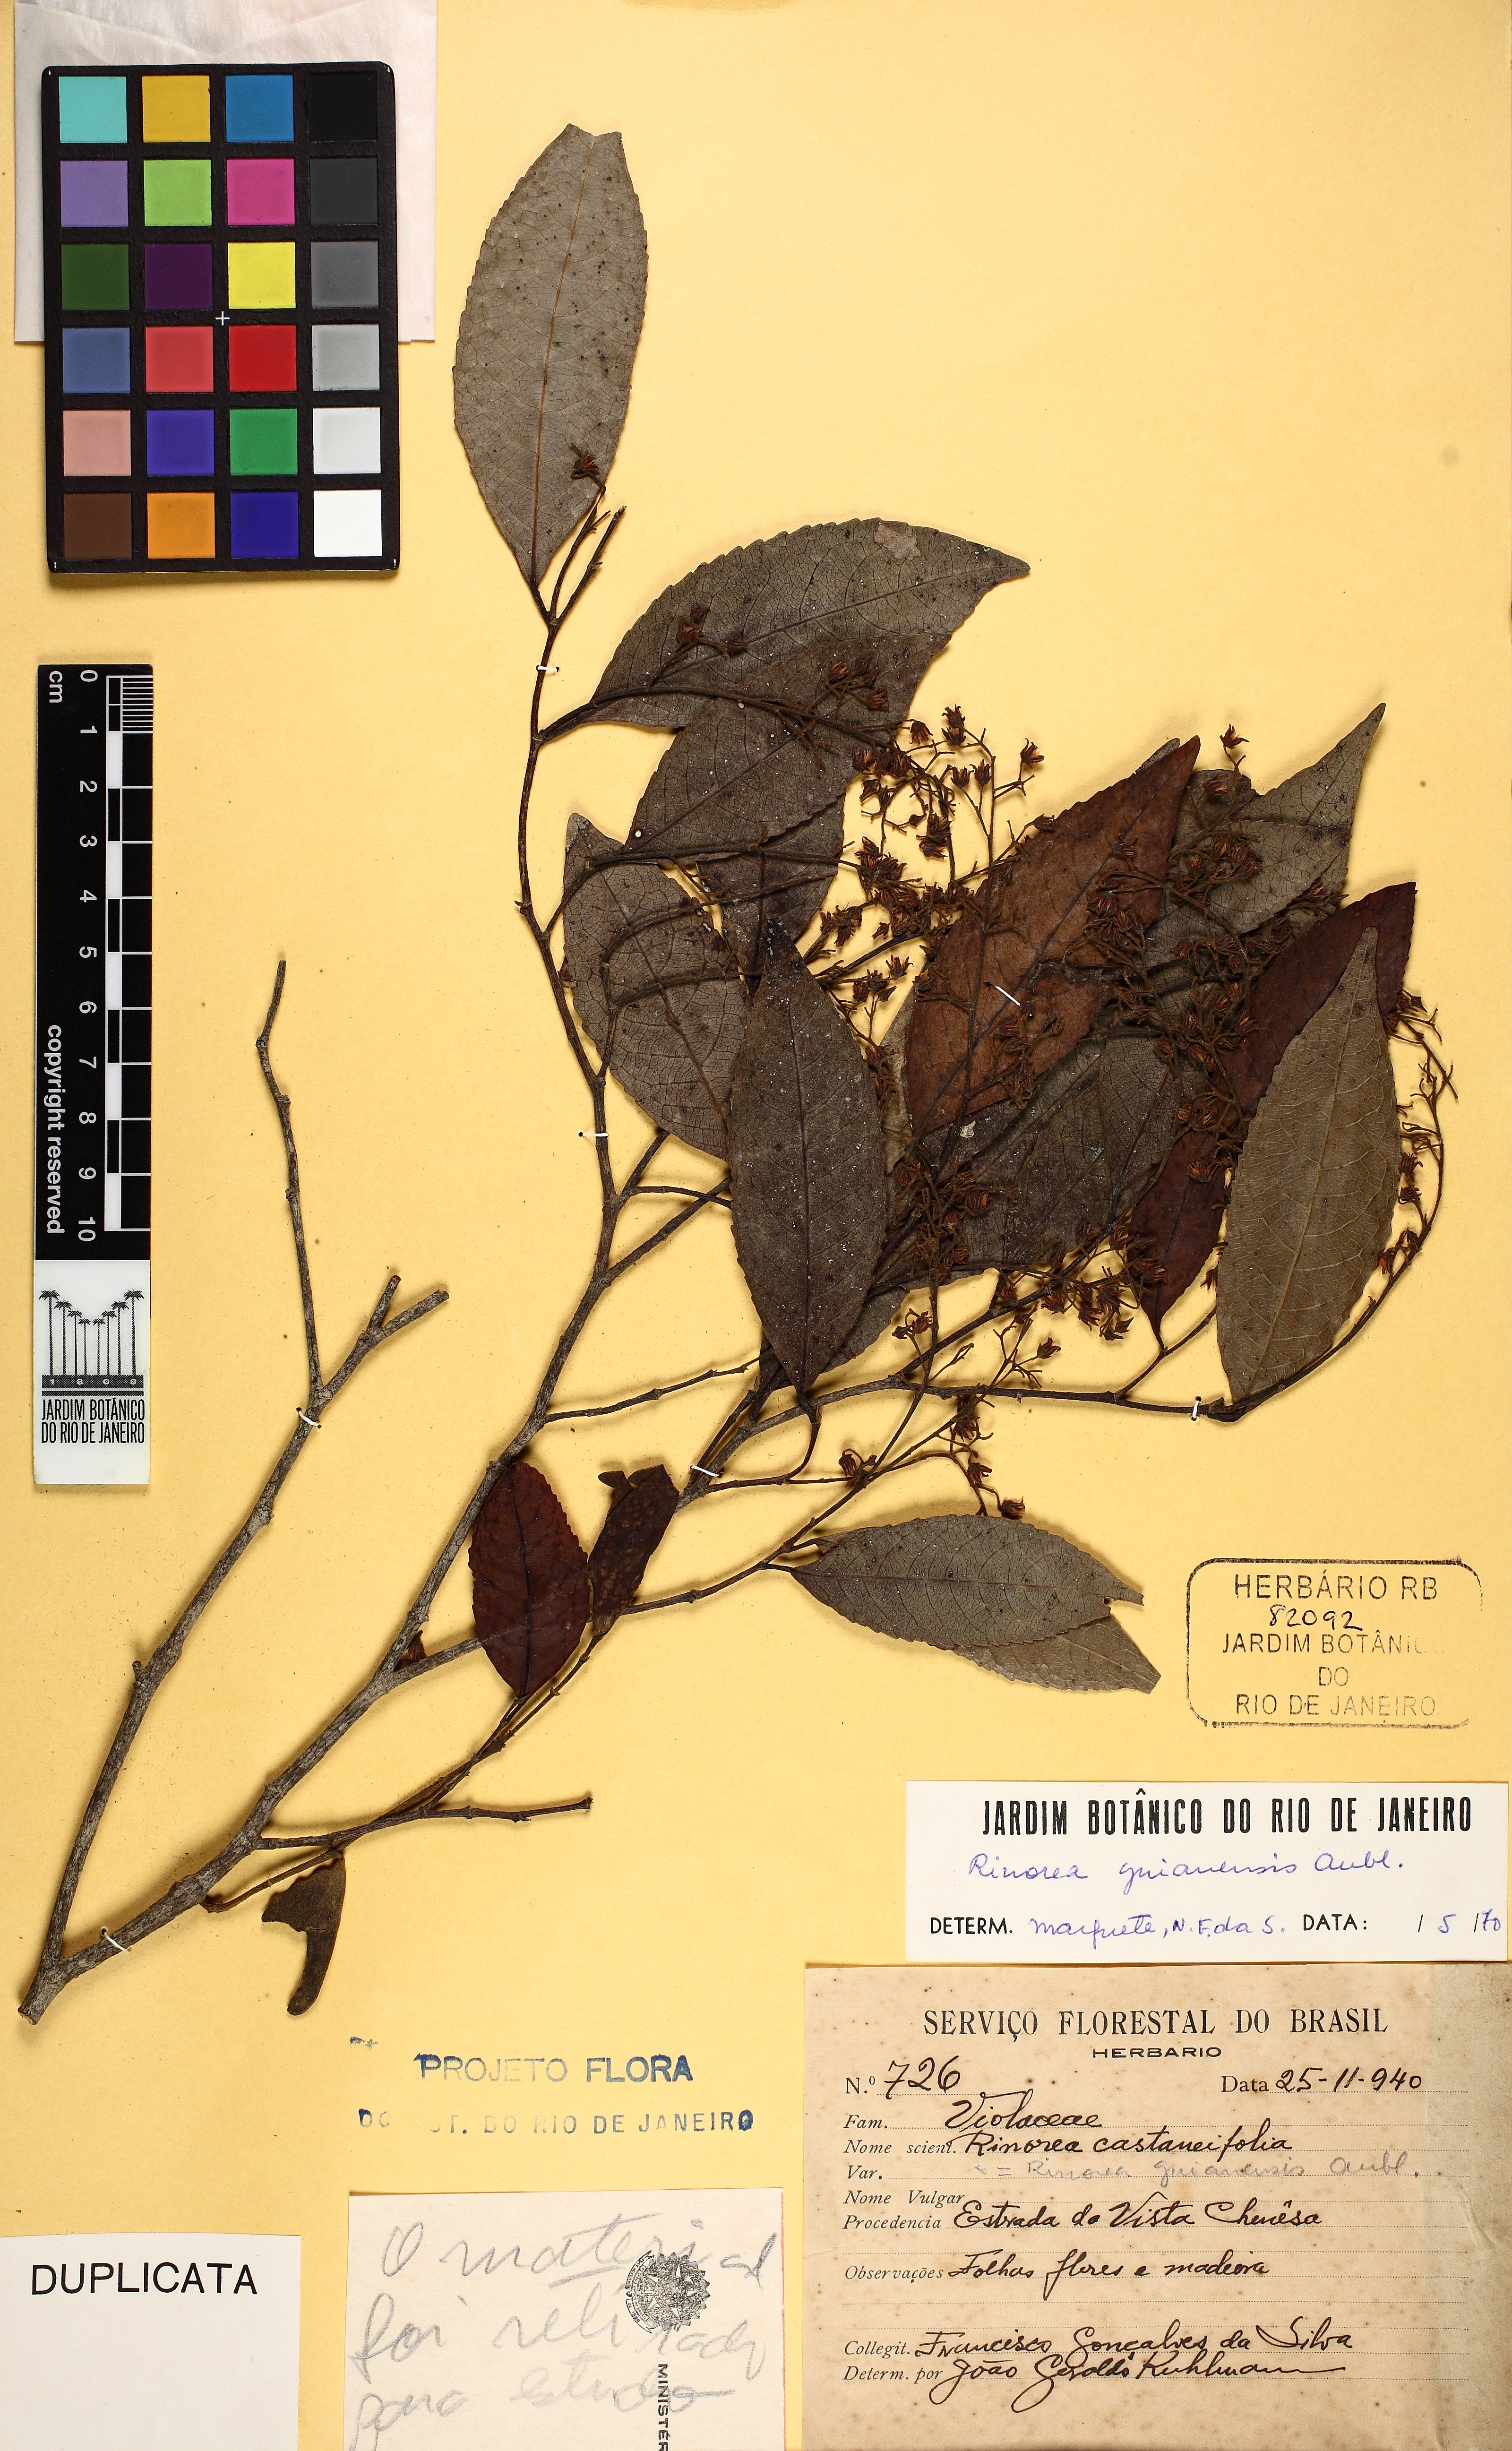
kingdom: Plantae
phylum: Tracheophyta
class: Magnoliopsida
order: Malpighiales
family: Violaceae
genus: Rinorea
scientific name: Rinorea guianensis
